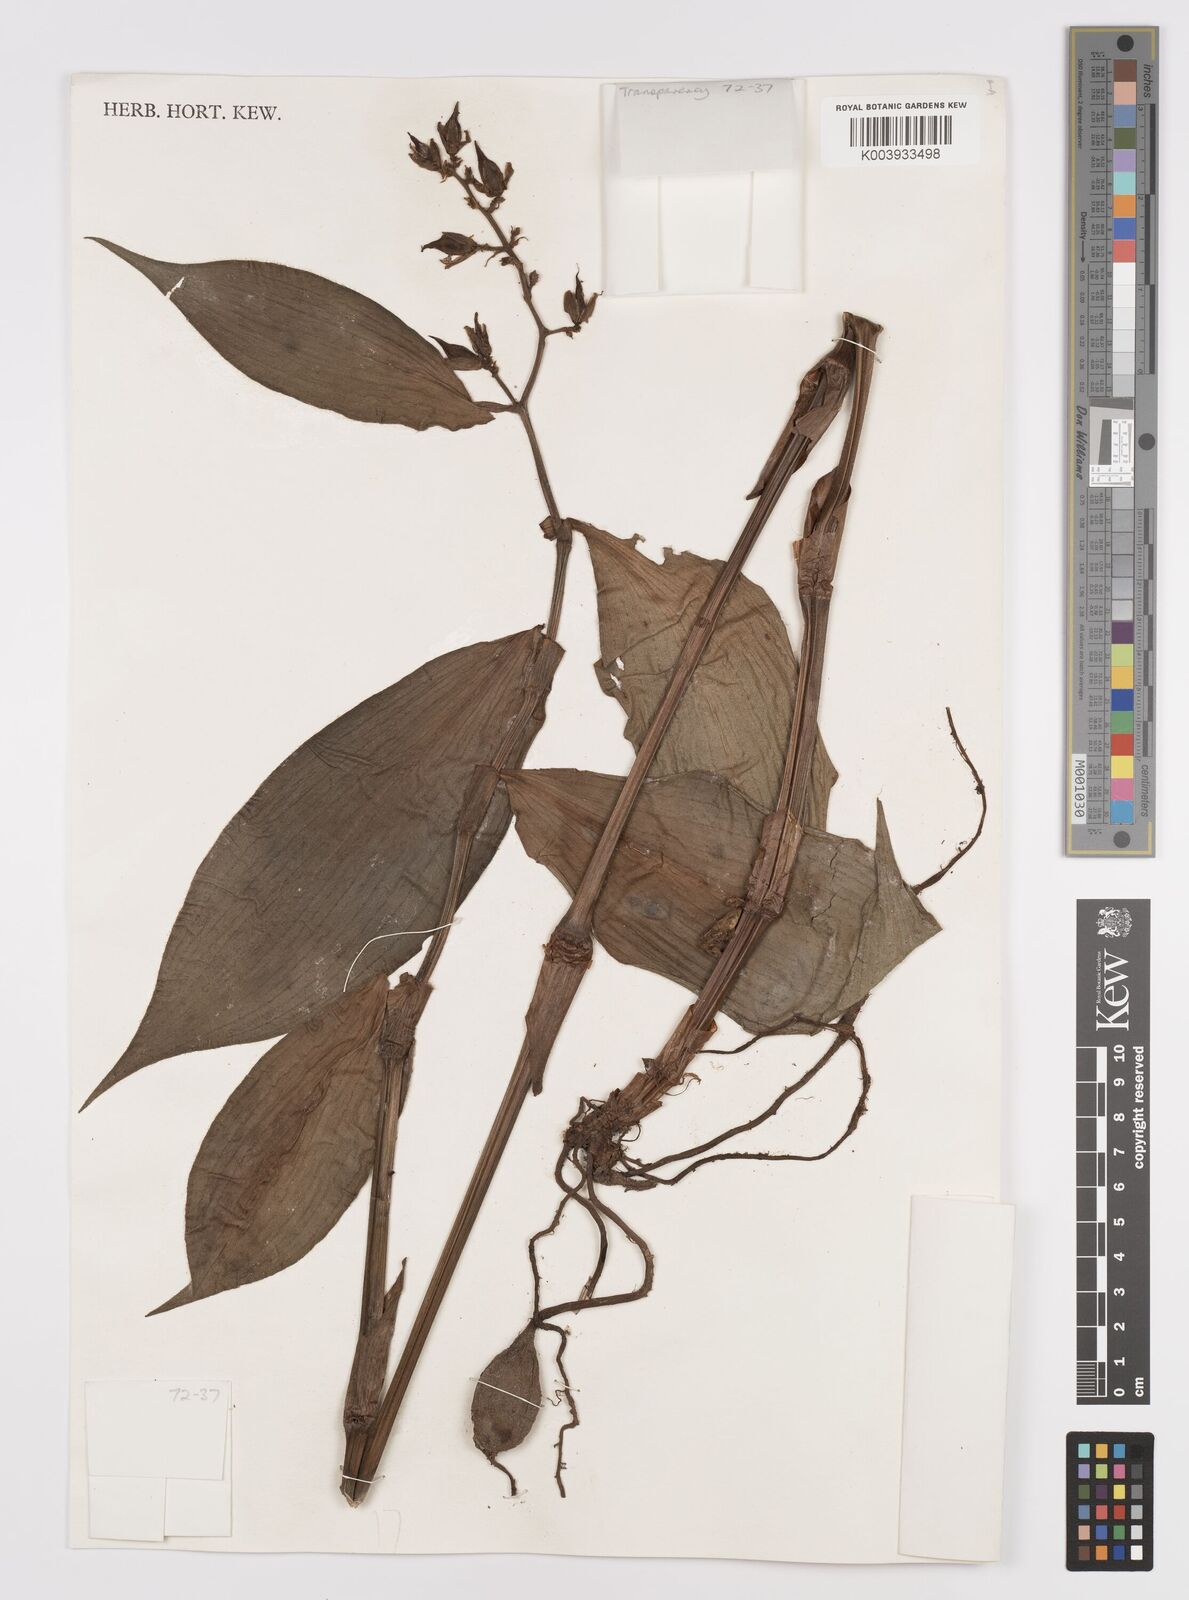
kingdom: Plantae
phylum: Tracheophyta
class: Liliopsida
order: Commelinales
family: Commelinaceae
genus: Dichorisandra
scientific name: Dichorisandra villosula
